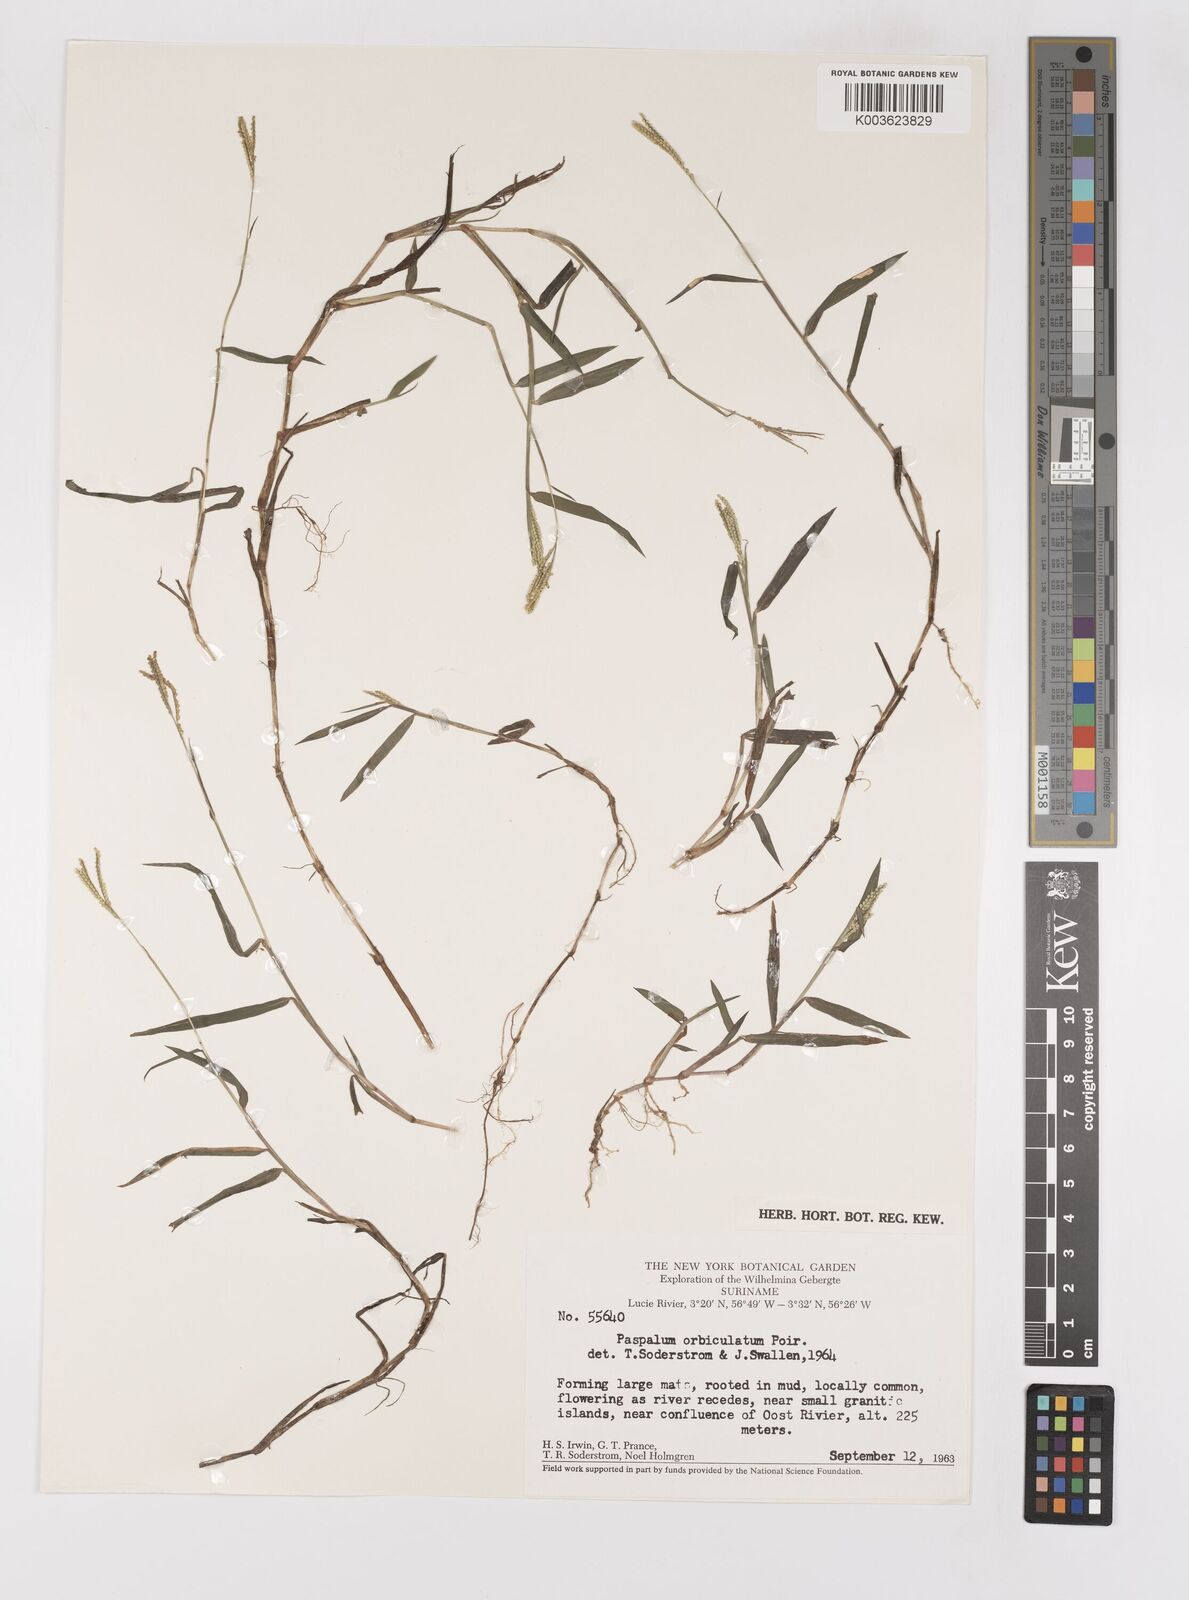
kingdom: Plantae
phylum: Tracheophyta
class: Liliopsida
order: Poales
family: Poaceae
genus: Paspalum
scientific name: Paspalum orbiculatum
